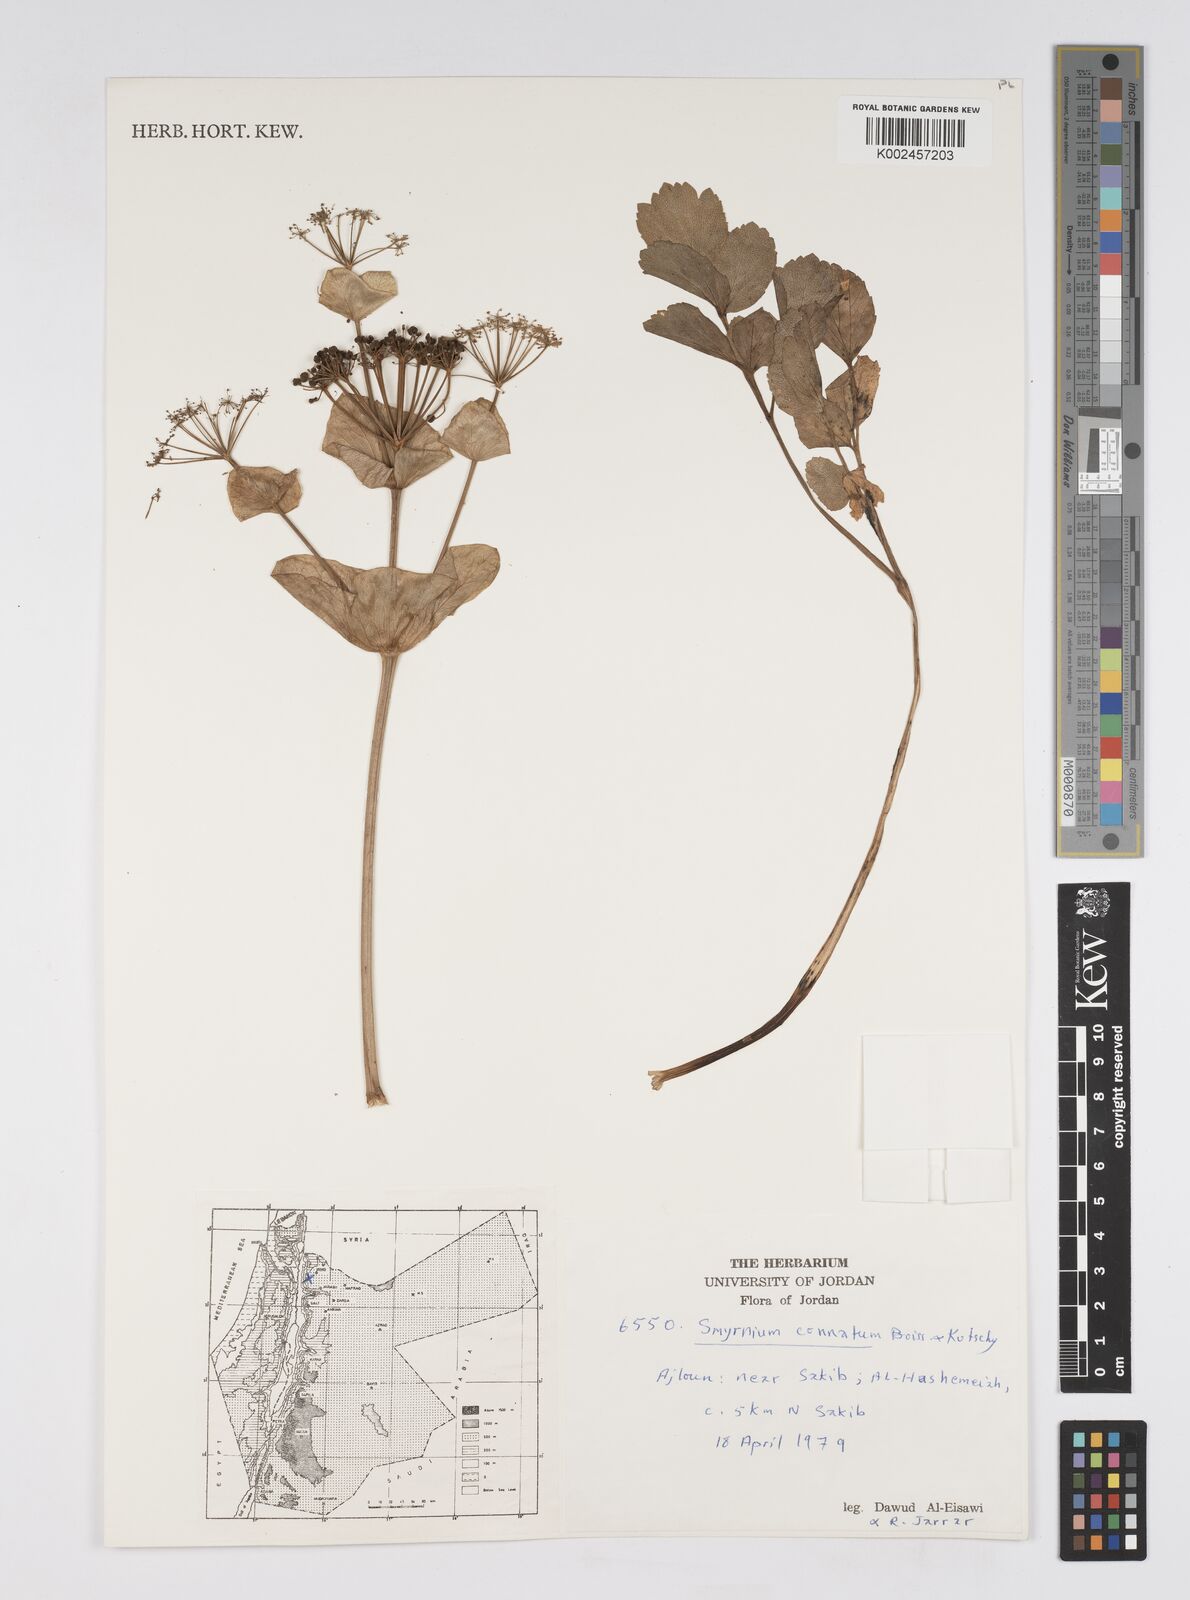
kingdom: Plantae
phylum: Tracheophyta
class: Magnoliopsida
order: Apiales
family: Apiaceae
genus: Smyrnium
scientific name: Smyrnium connatum
